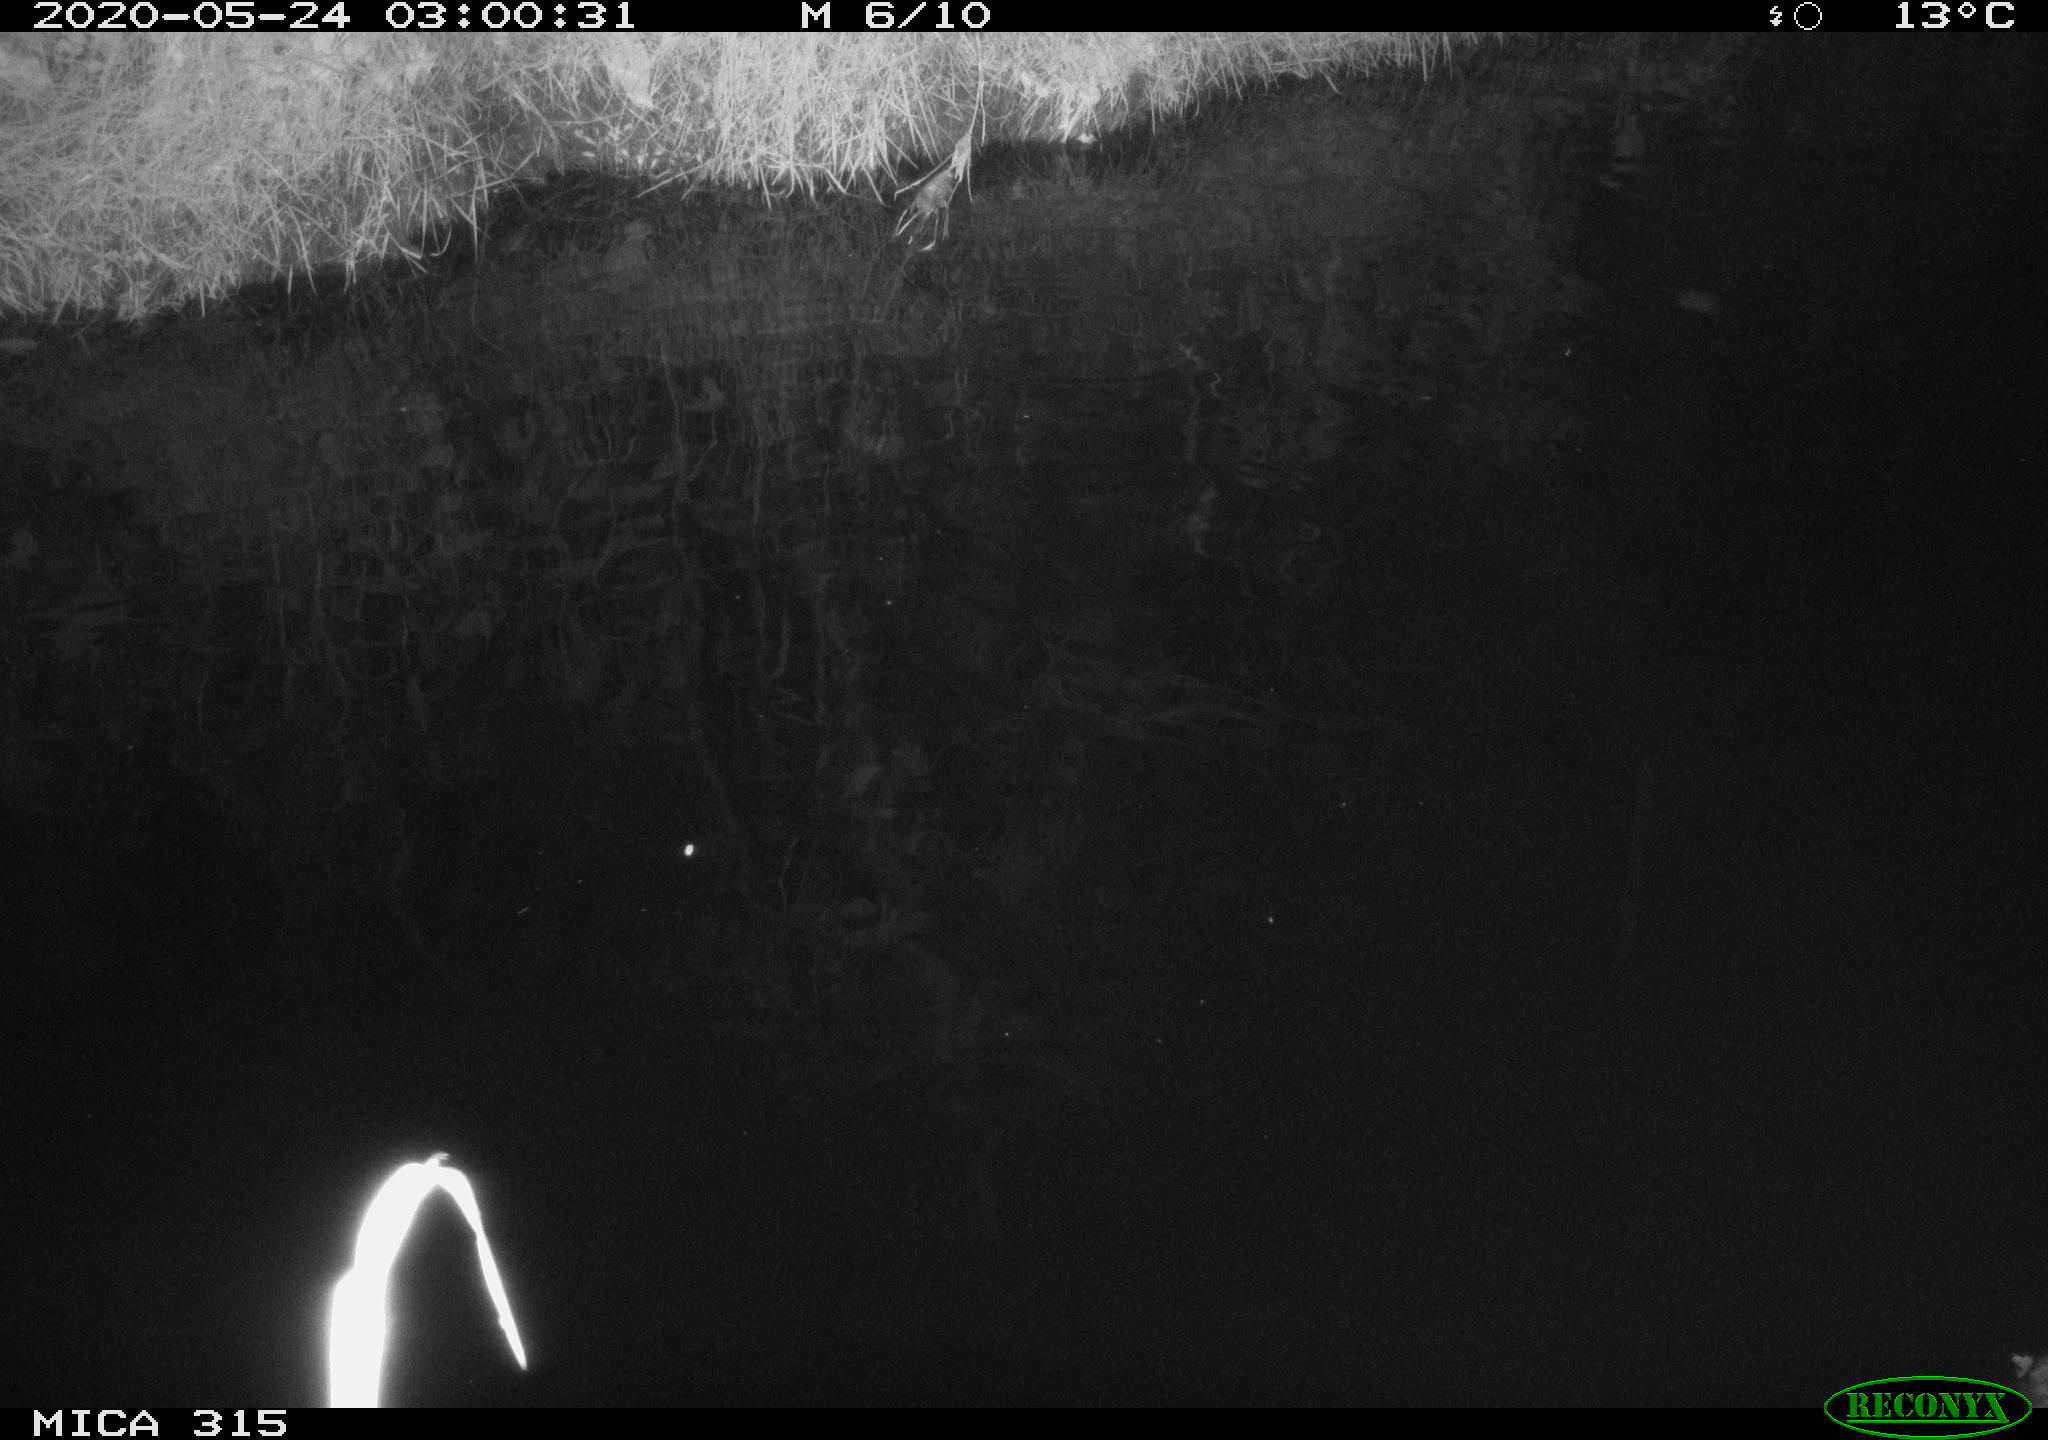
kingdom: Animalia
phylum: Chordata
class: Aves
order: Anseriformes
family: Anatidae
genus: Anas
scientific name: Anas platyrhynchos
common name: Mallard
